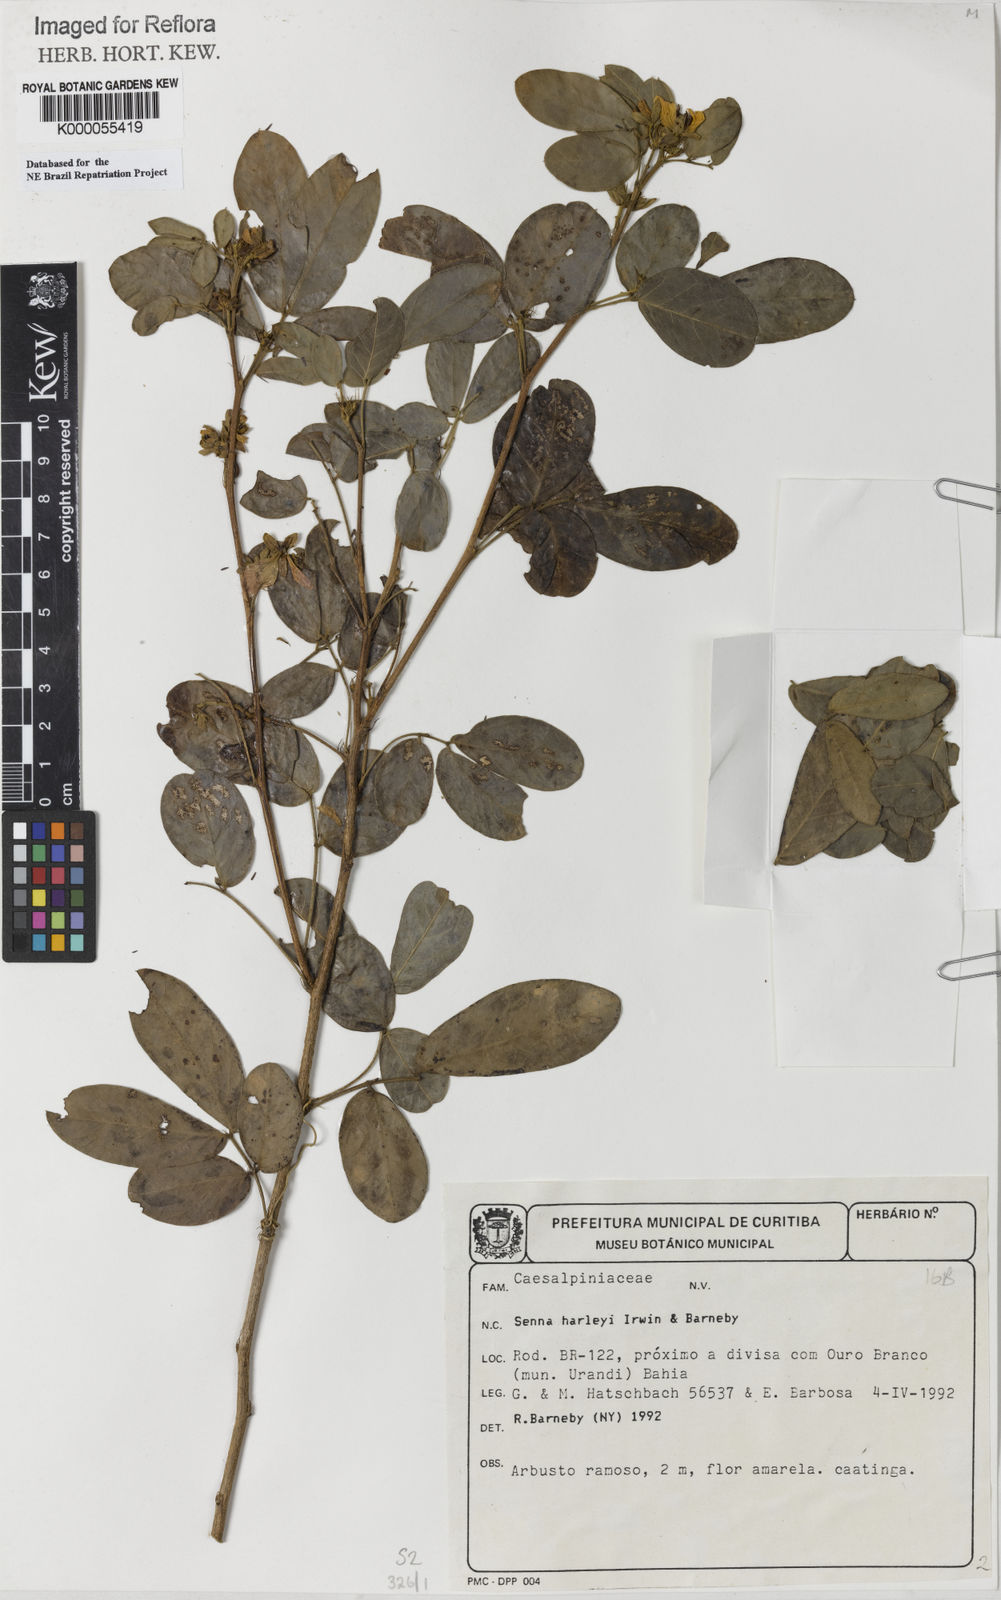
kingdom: Plantae
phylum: Tracheophyta
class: Magnoliopsida
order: Fabales
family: Fabaceae
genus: Senna
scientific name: Senna harleyi
